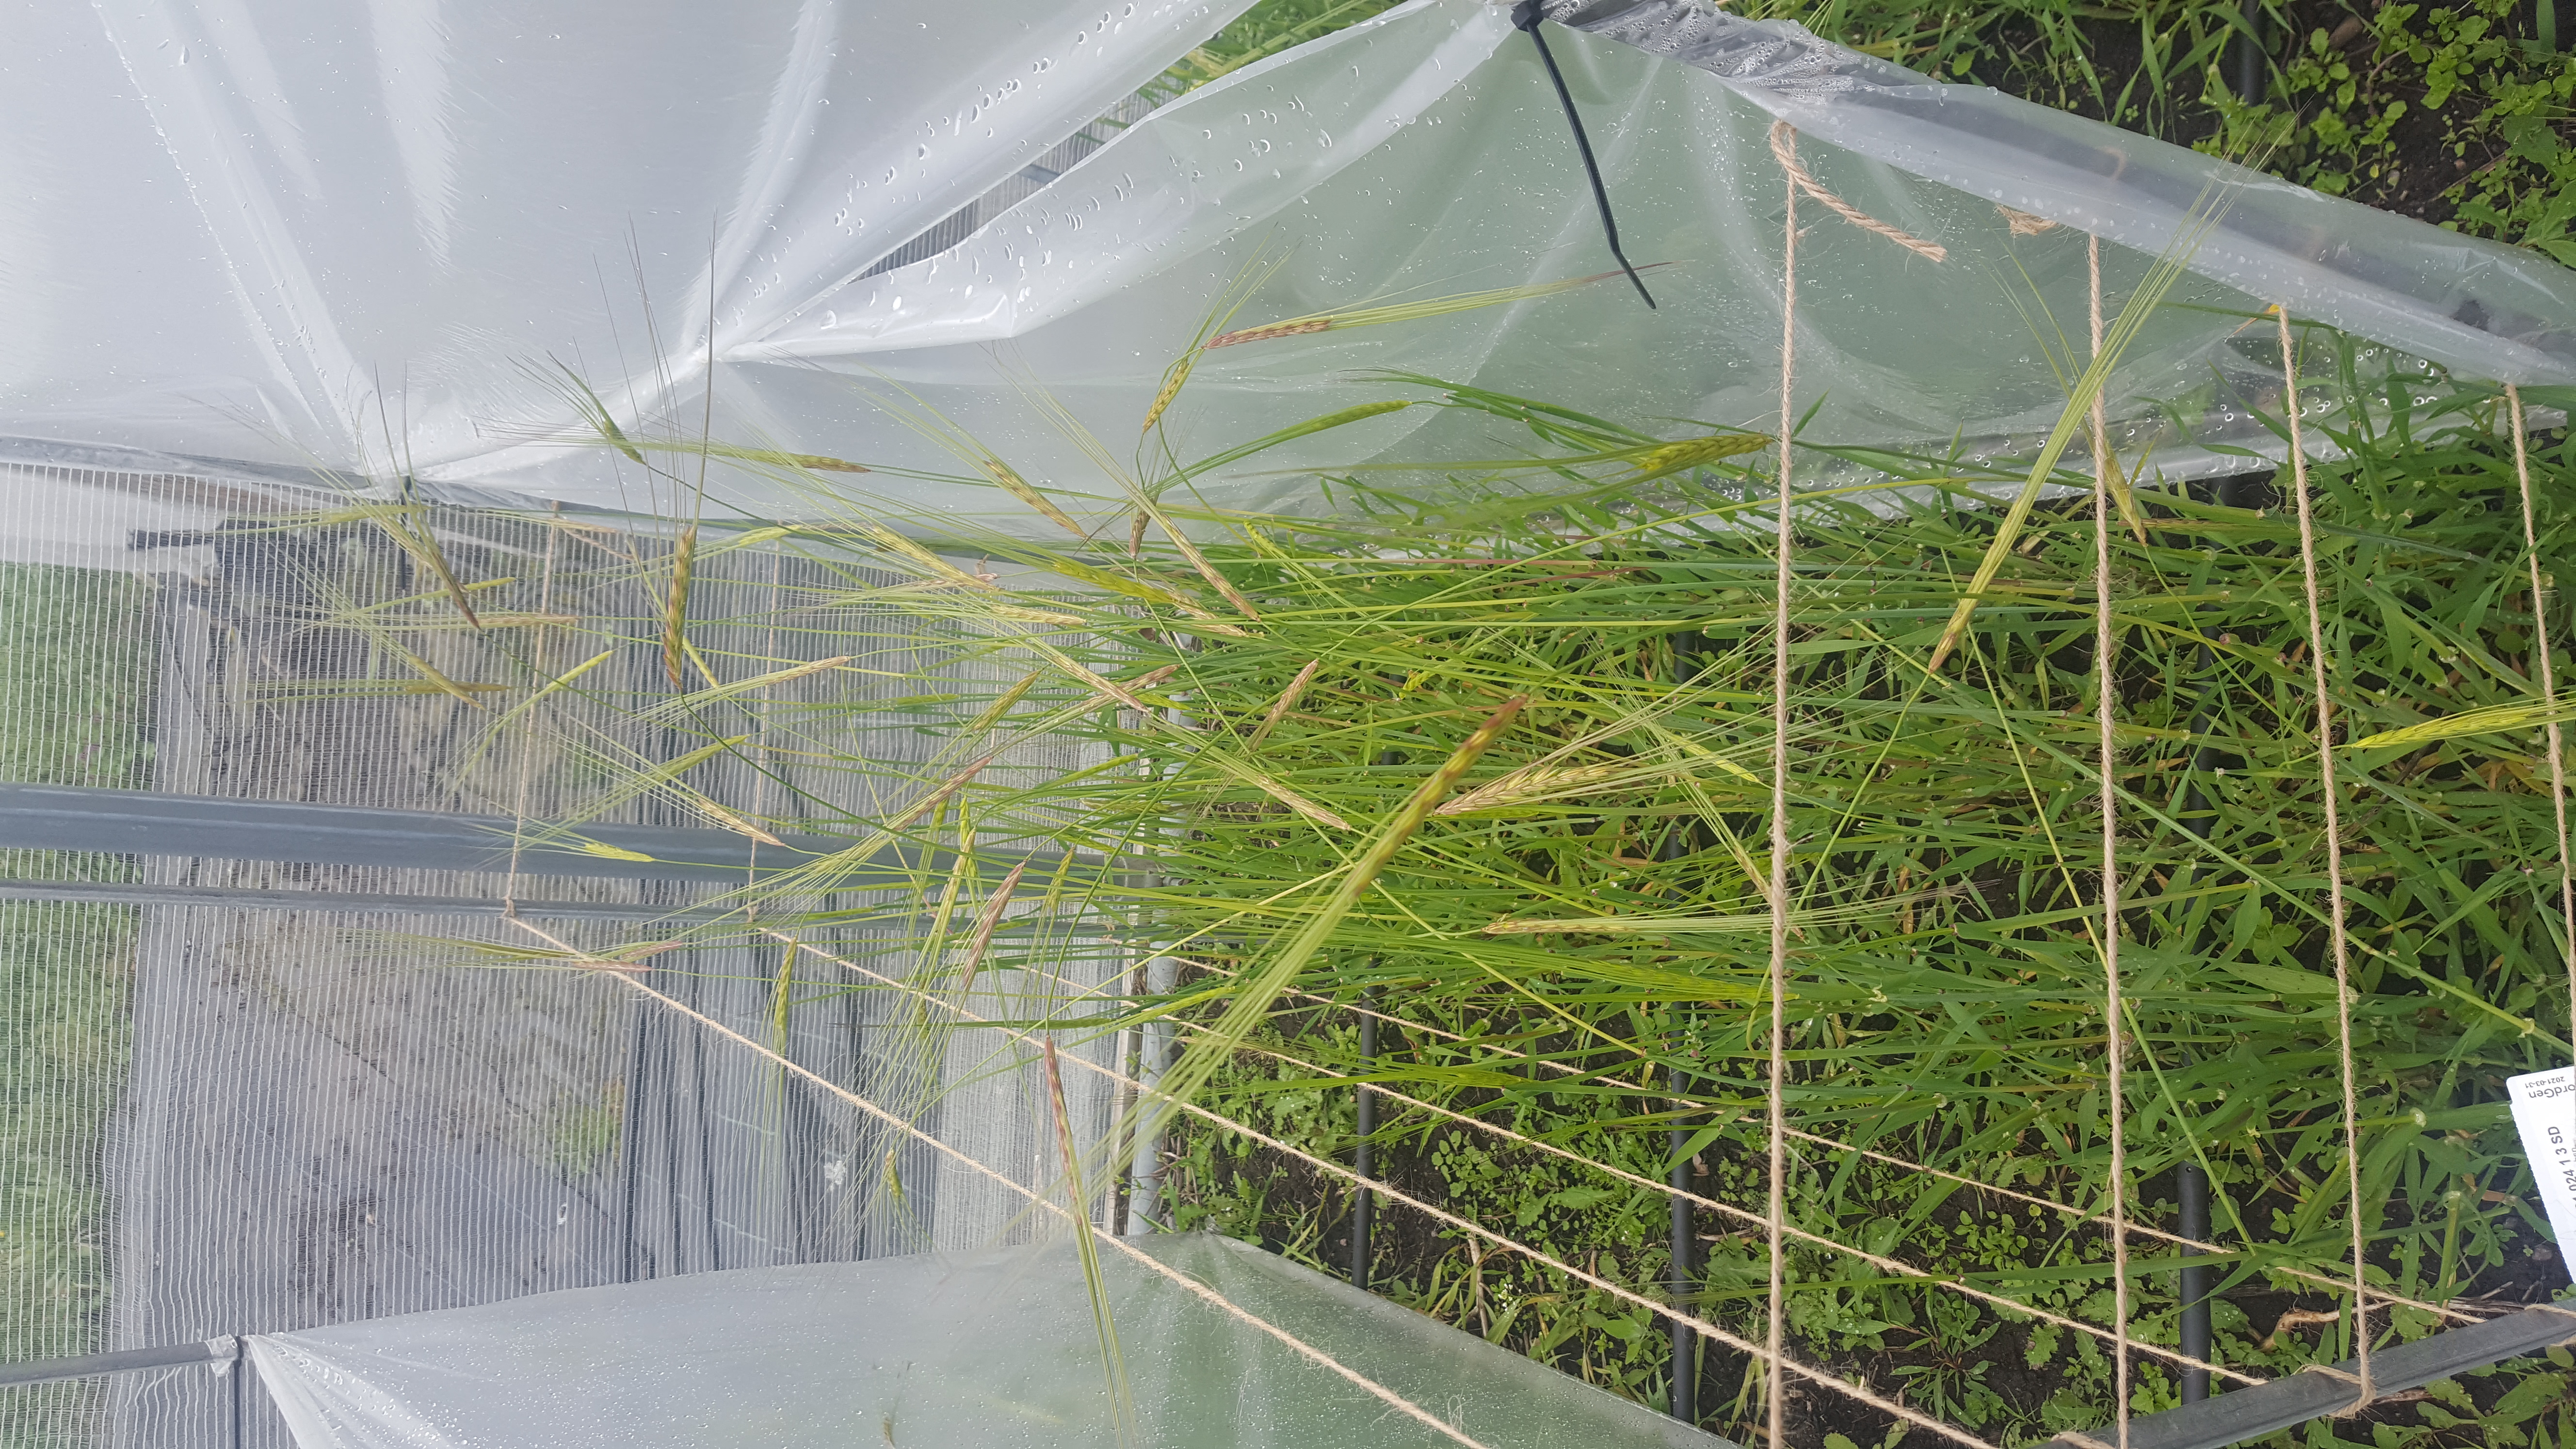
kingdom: Plantae
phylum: Tracheophyta
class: Liliopsida
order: Poales
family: Poaceae
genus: Hordeum
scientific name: Hordeum spontaneum
